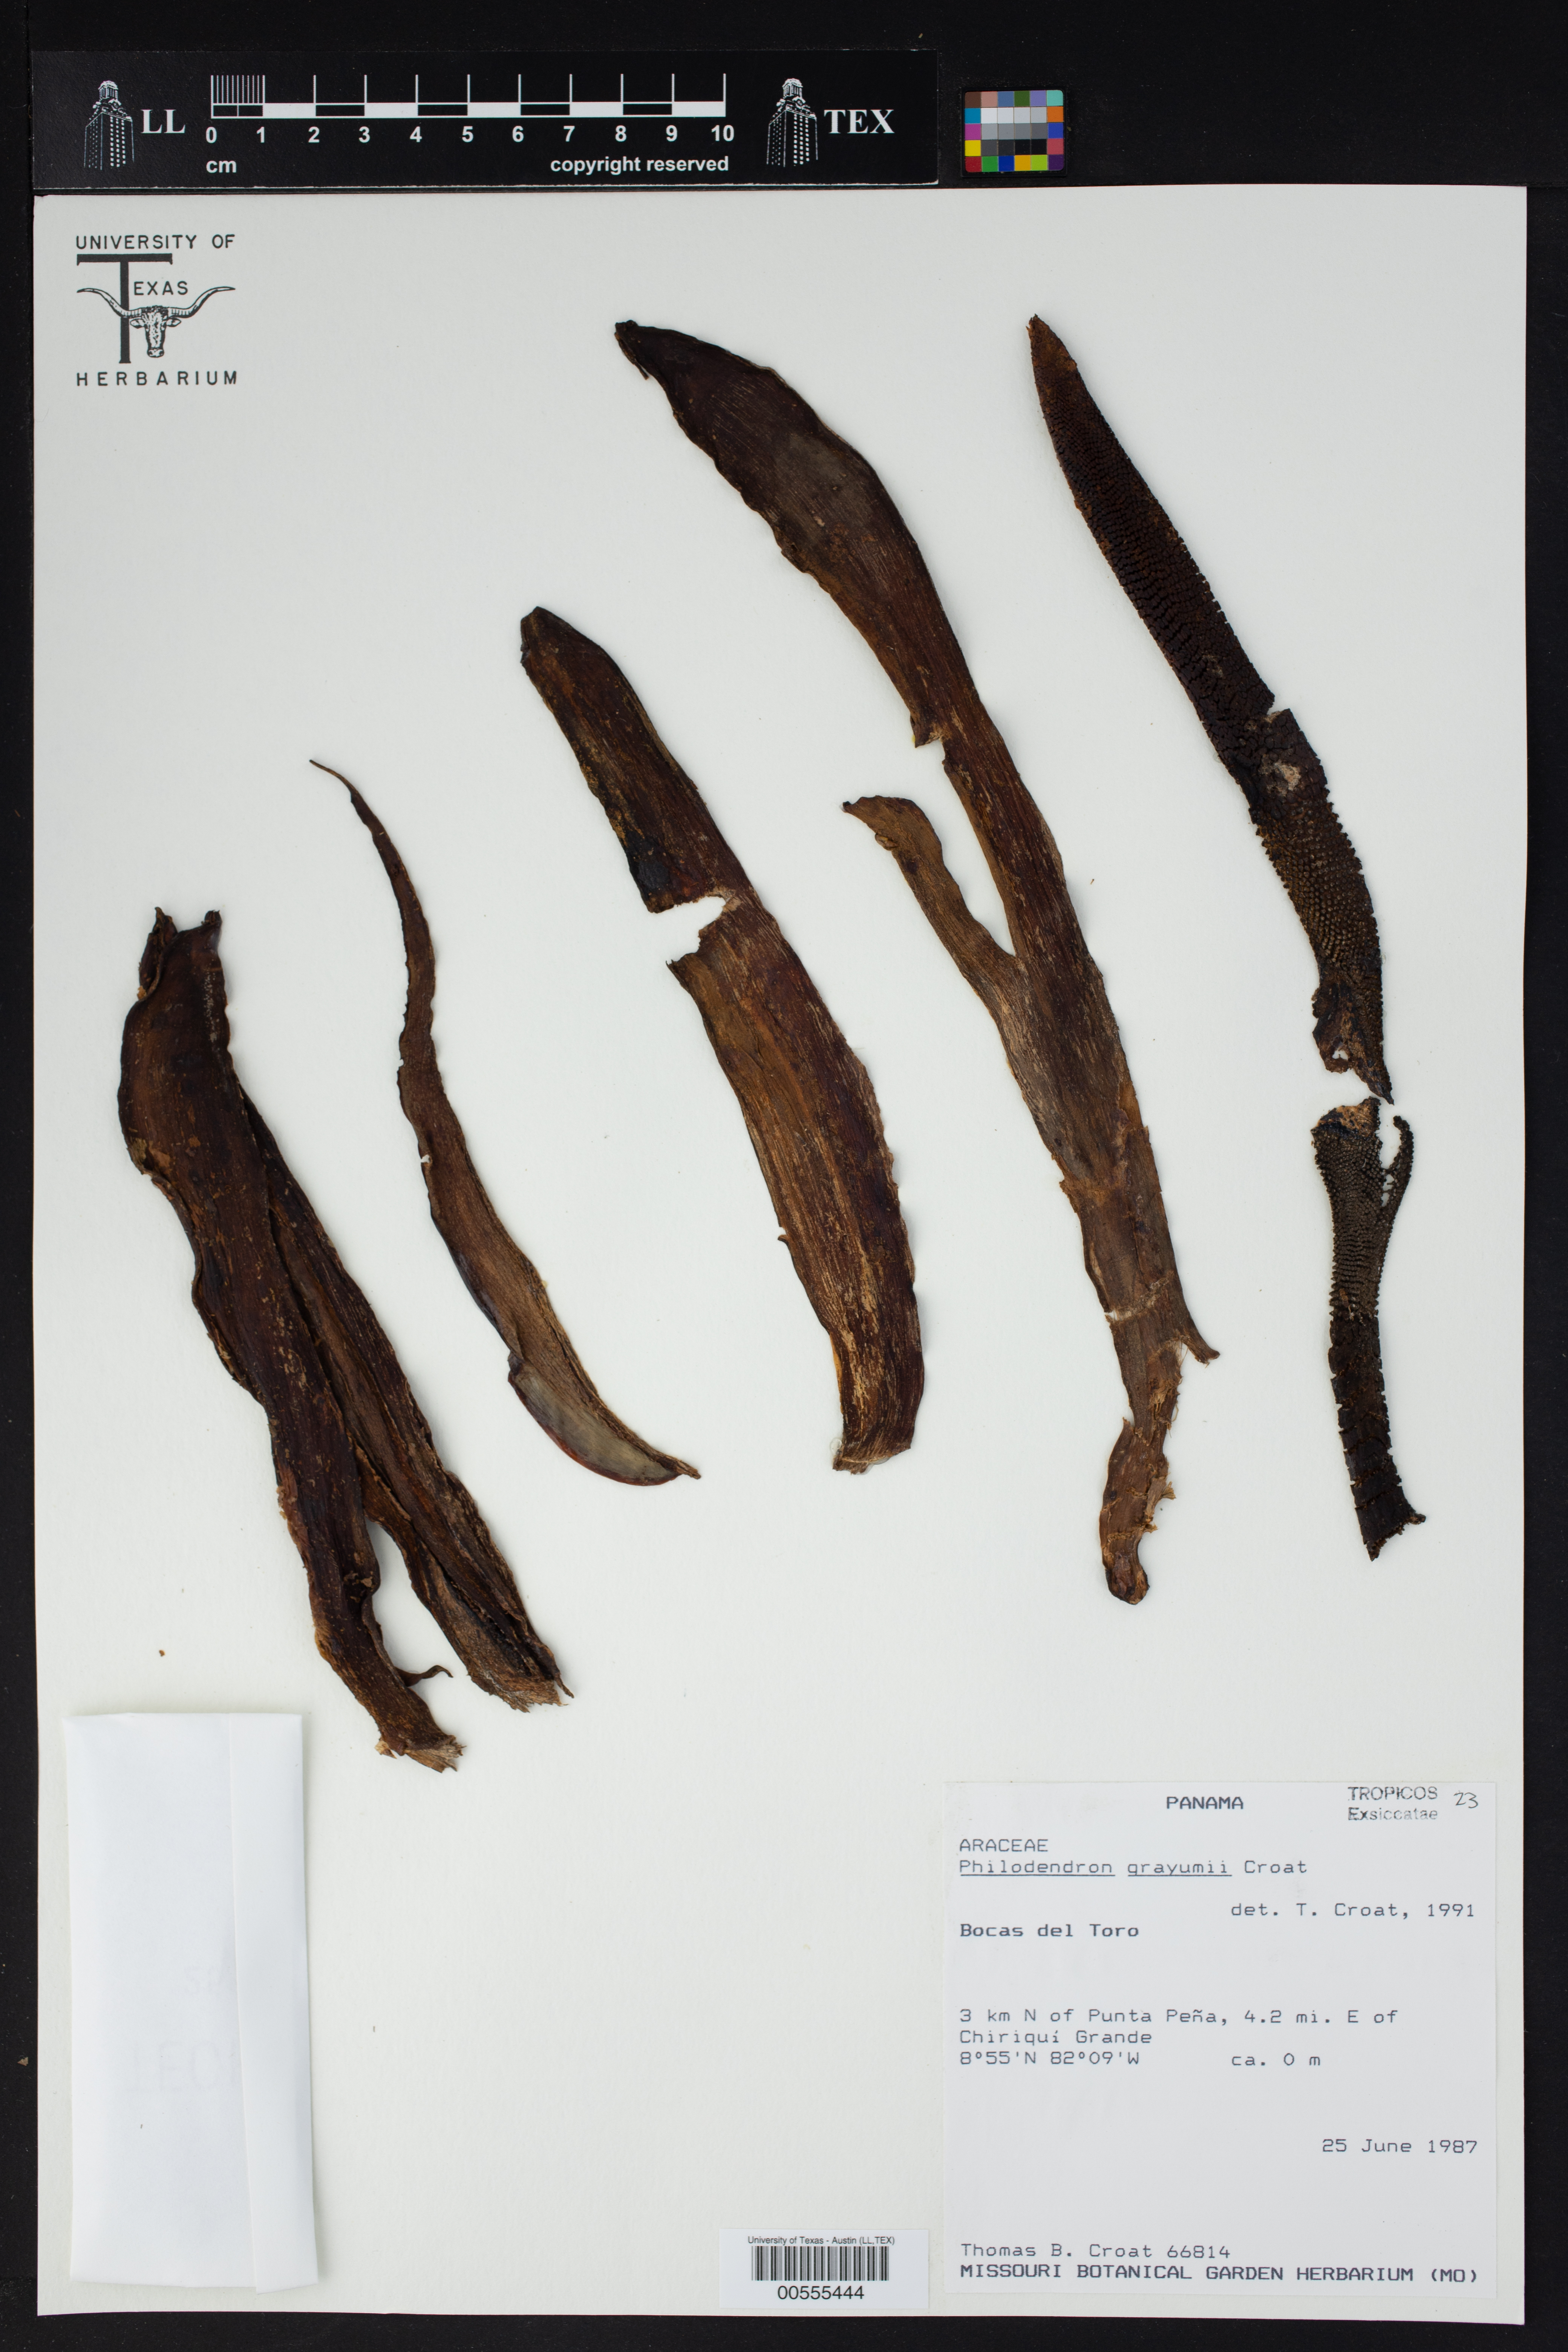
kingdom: Plantae
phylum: Tracheophyta
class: Liliopsida
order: Alismatales
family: Araceae
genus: Philodendron
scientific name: Philodendron grayumii
